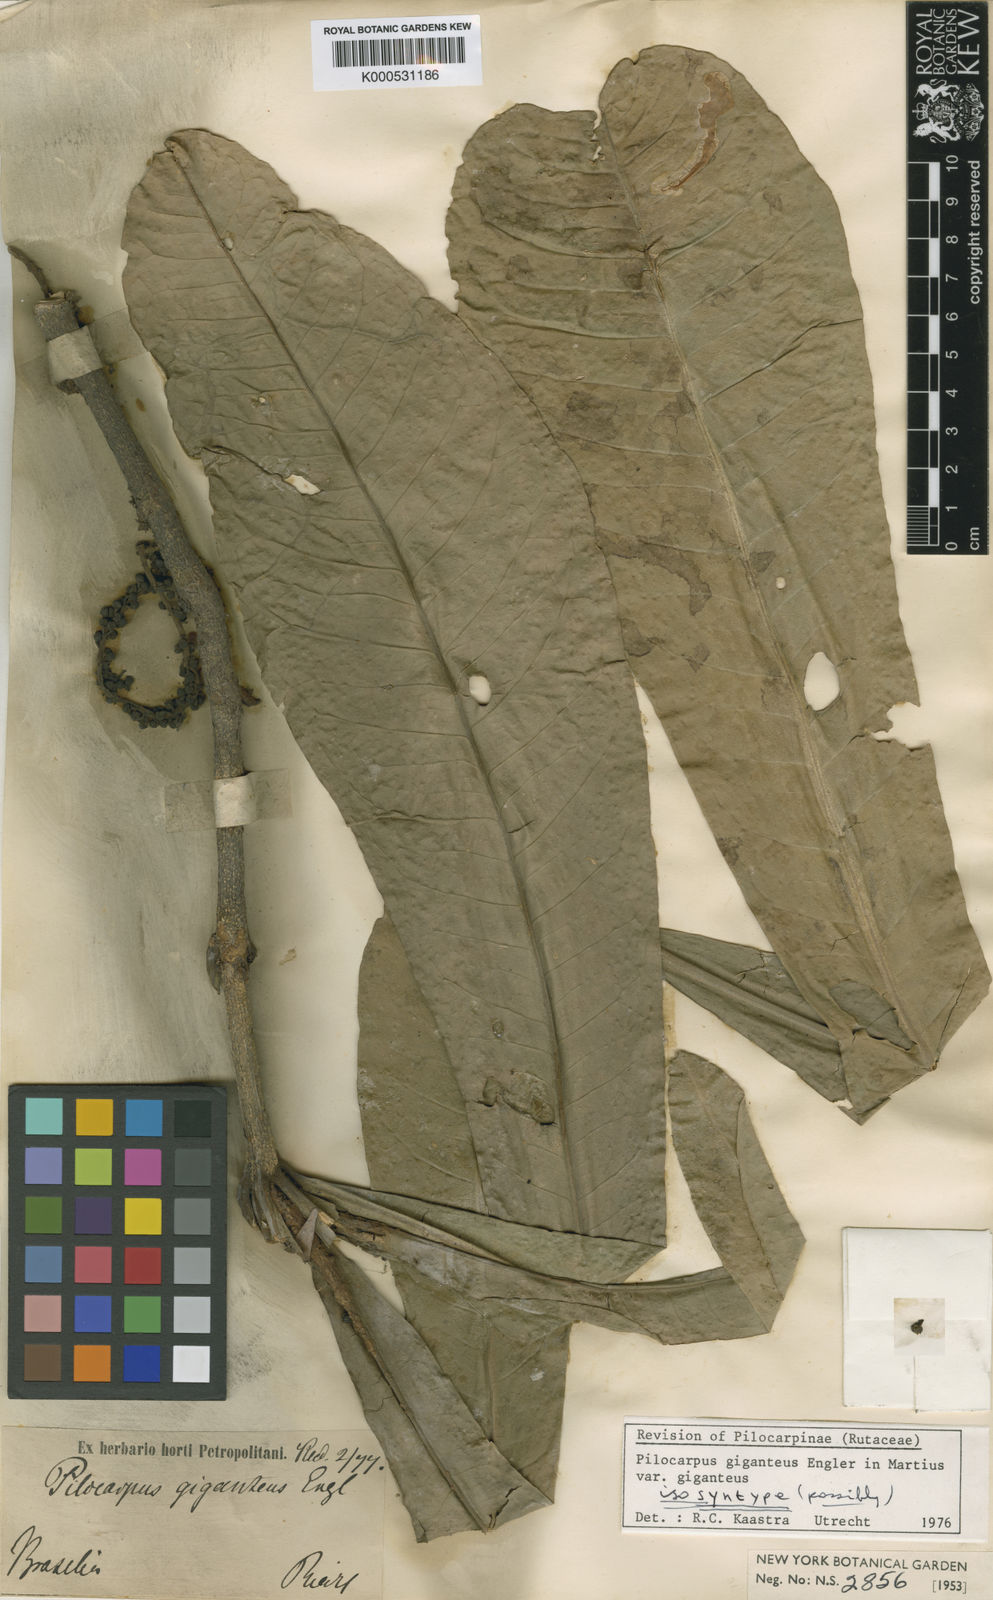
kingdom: Plantae
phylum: Tracheophyta
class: Magnoliopsida
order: Sapindales
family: Rutaceae
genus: Pilocarpus
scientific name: Pilocarpus
